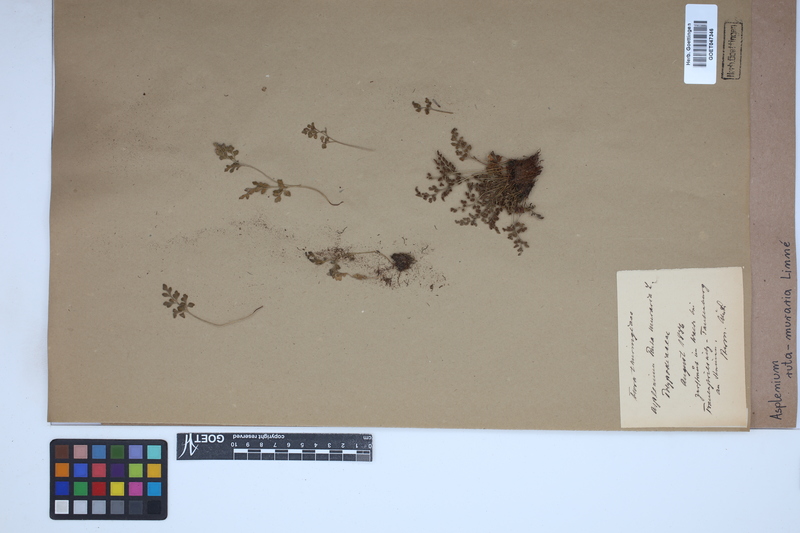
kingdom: Plantae
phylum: Tracheophyta
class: Polypodiopsida
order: Polypodiales
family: Aspleniaceae
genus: Asplenium
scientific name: Asplenium ruta-muraria
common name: Wall-rue
